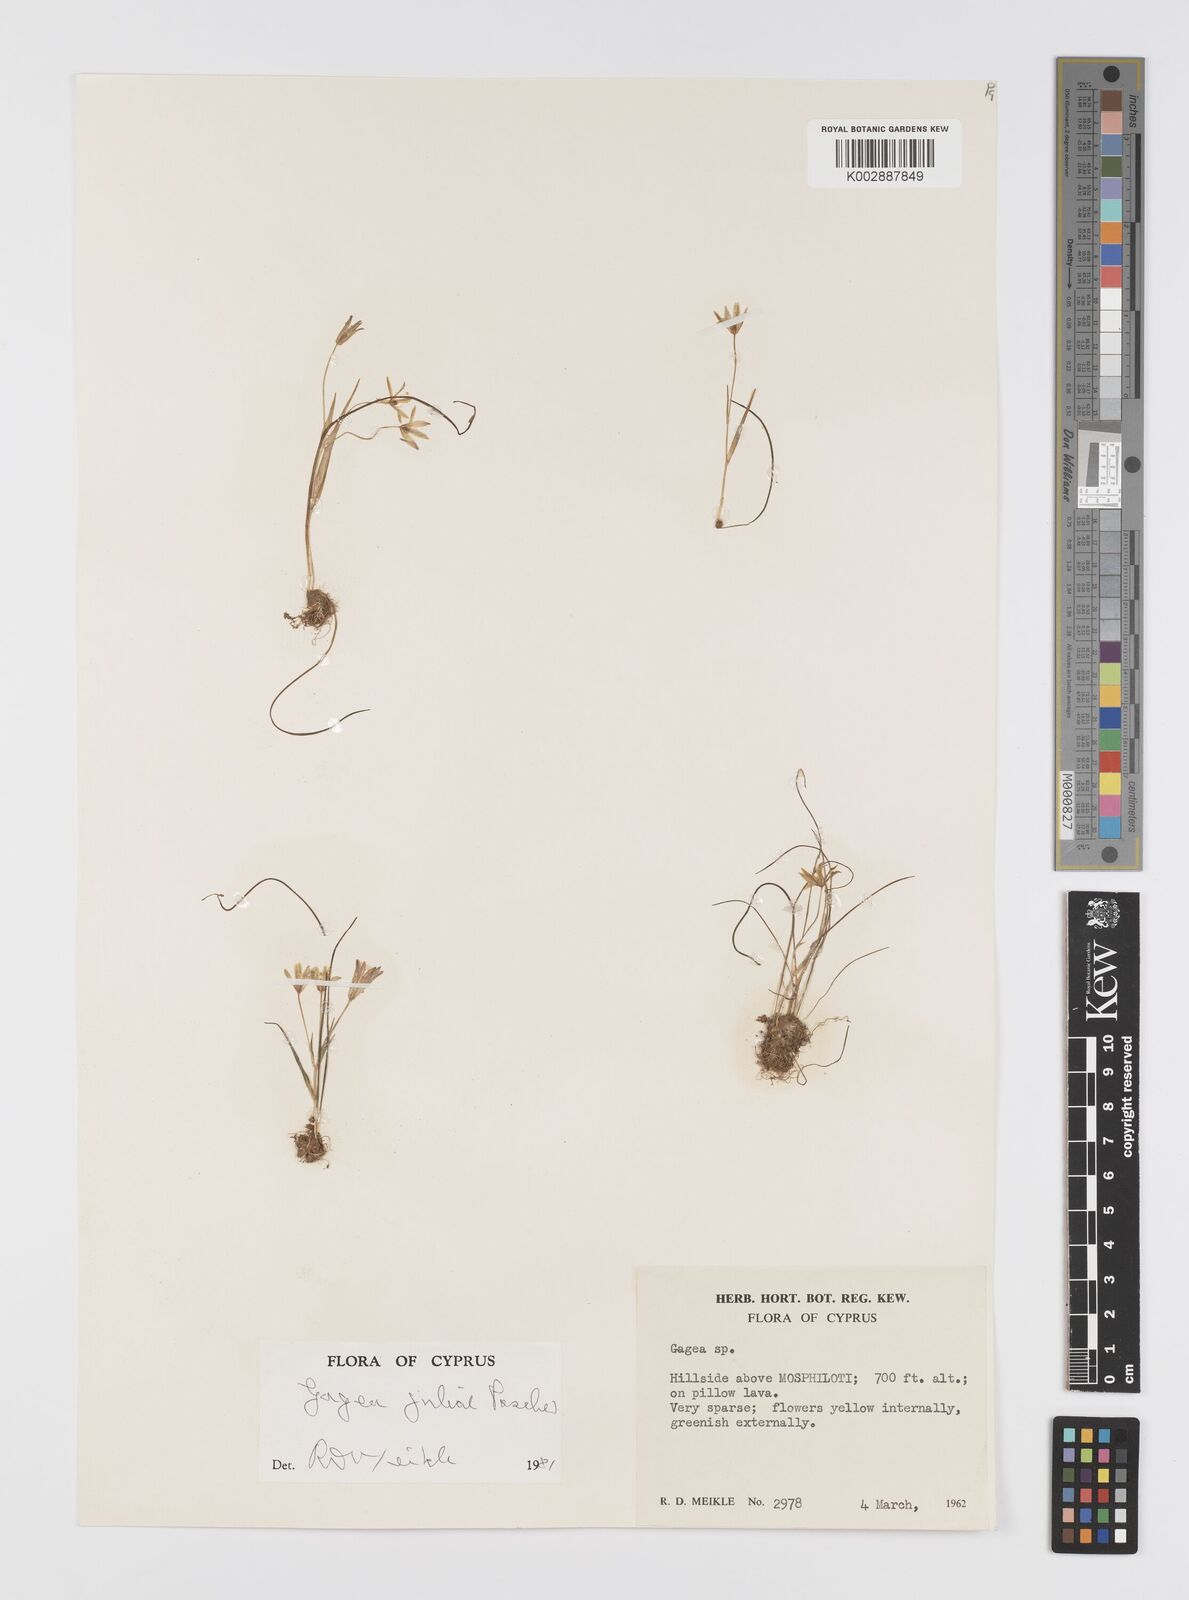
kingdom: Plantae
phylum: Tracheophyta
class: Liliopsida
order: Liliales
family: Liliaceae
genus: Gagea
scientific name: Gagea juliae
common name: Julia’s gagea
